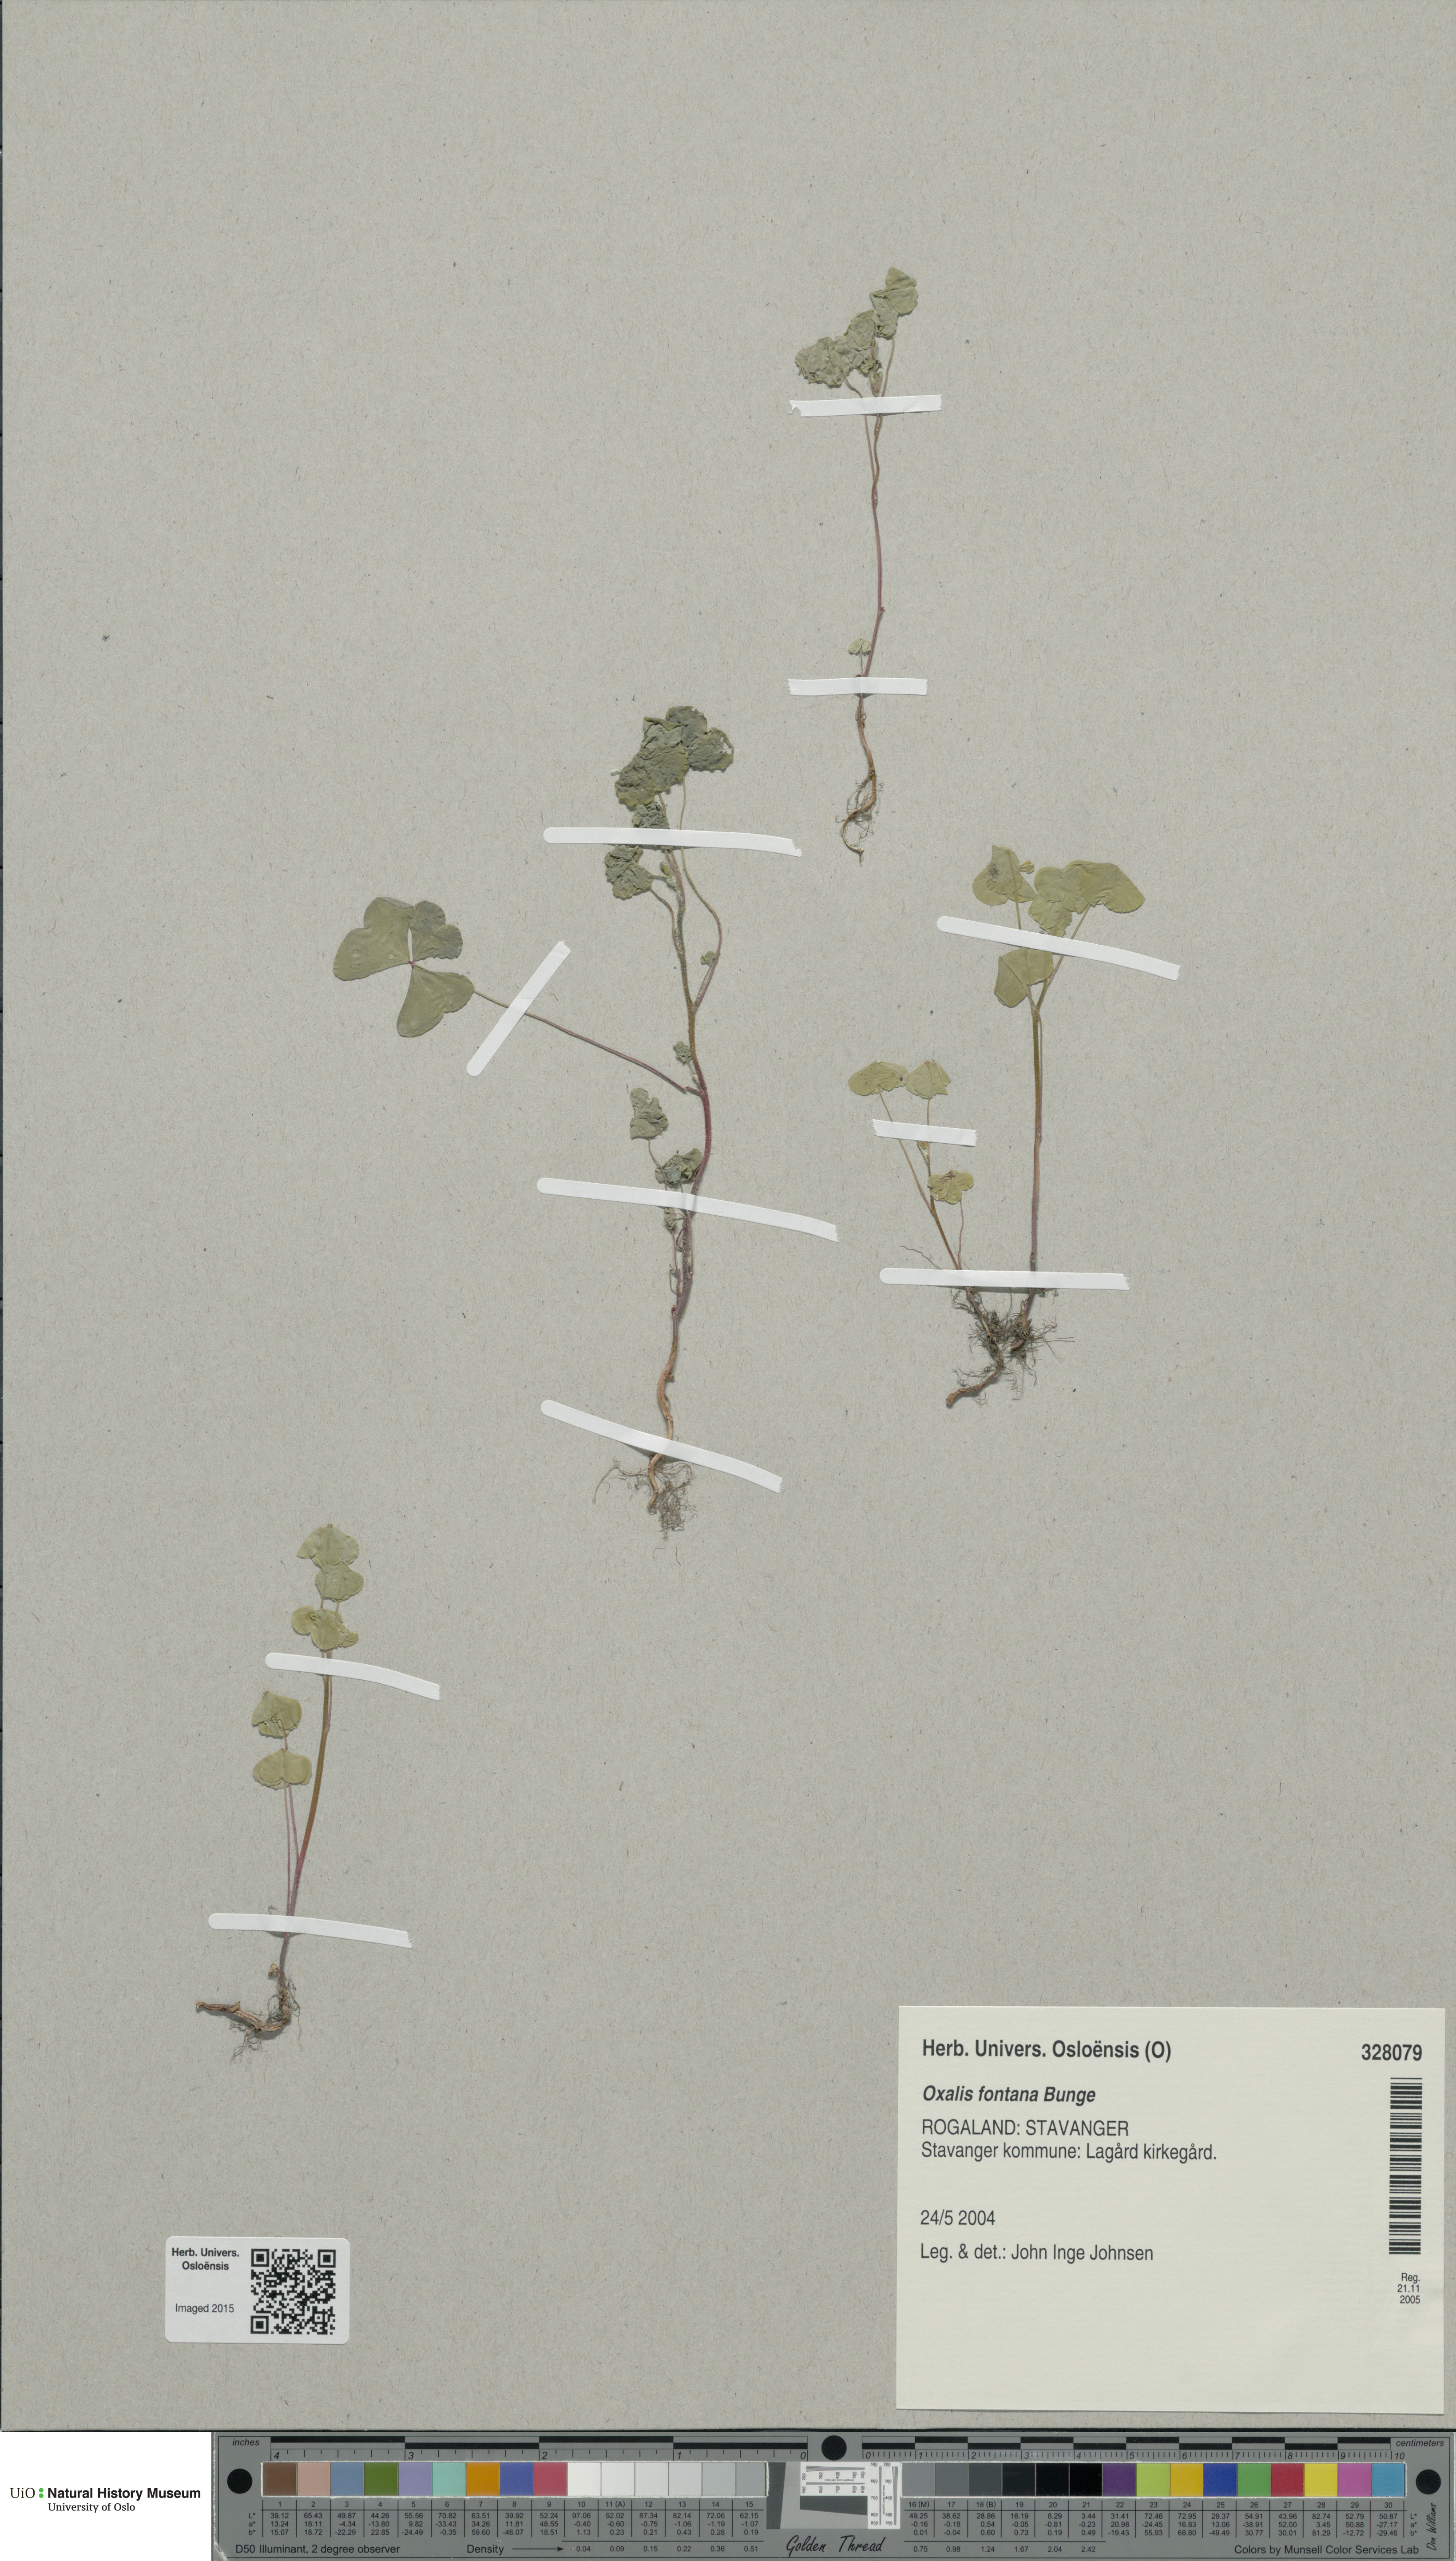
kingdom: Plantae
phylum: Tracheophyta
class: Magnoliopsida
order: Oxalidales
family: Oxalidaceae
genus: Oxalis
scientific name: Oxalis stricta
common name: Upright yellow-sorrel
